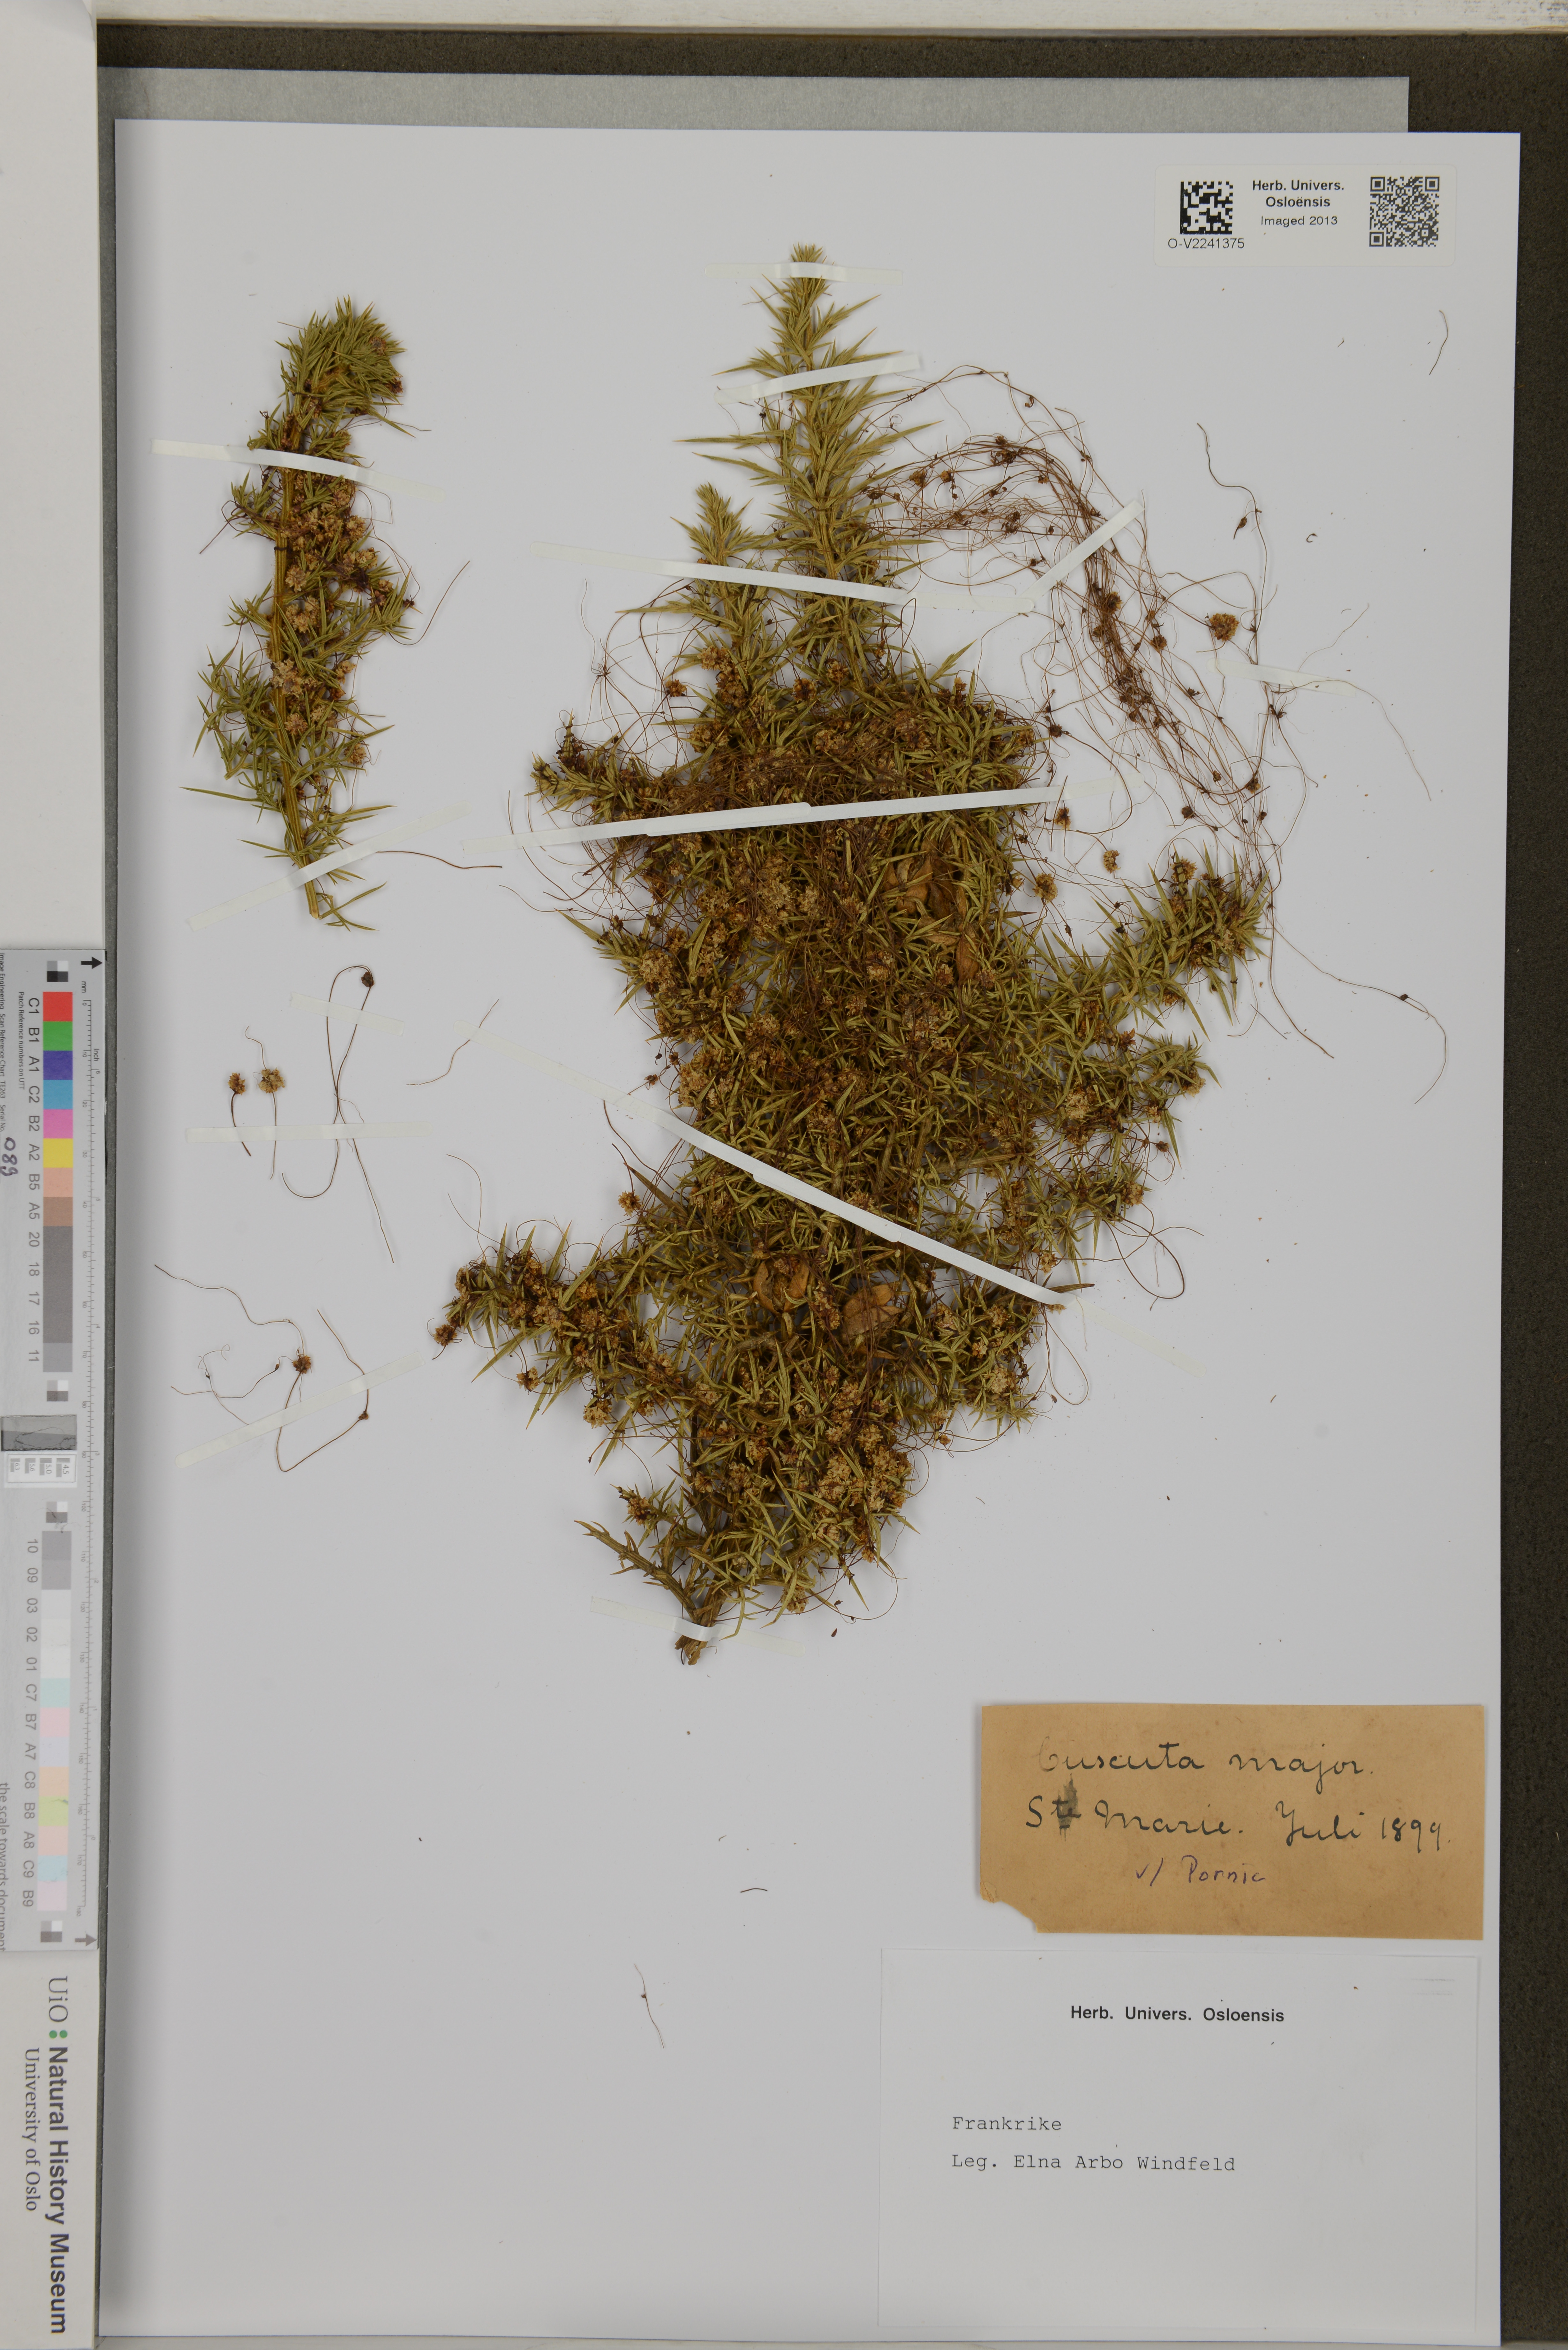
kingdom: Plantae
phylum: Tracheophyta
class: Magnoliopsida
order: Solanales
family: Convolvulaceae
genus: Cuscuta
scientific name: Cuscuta
